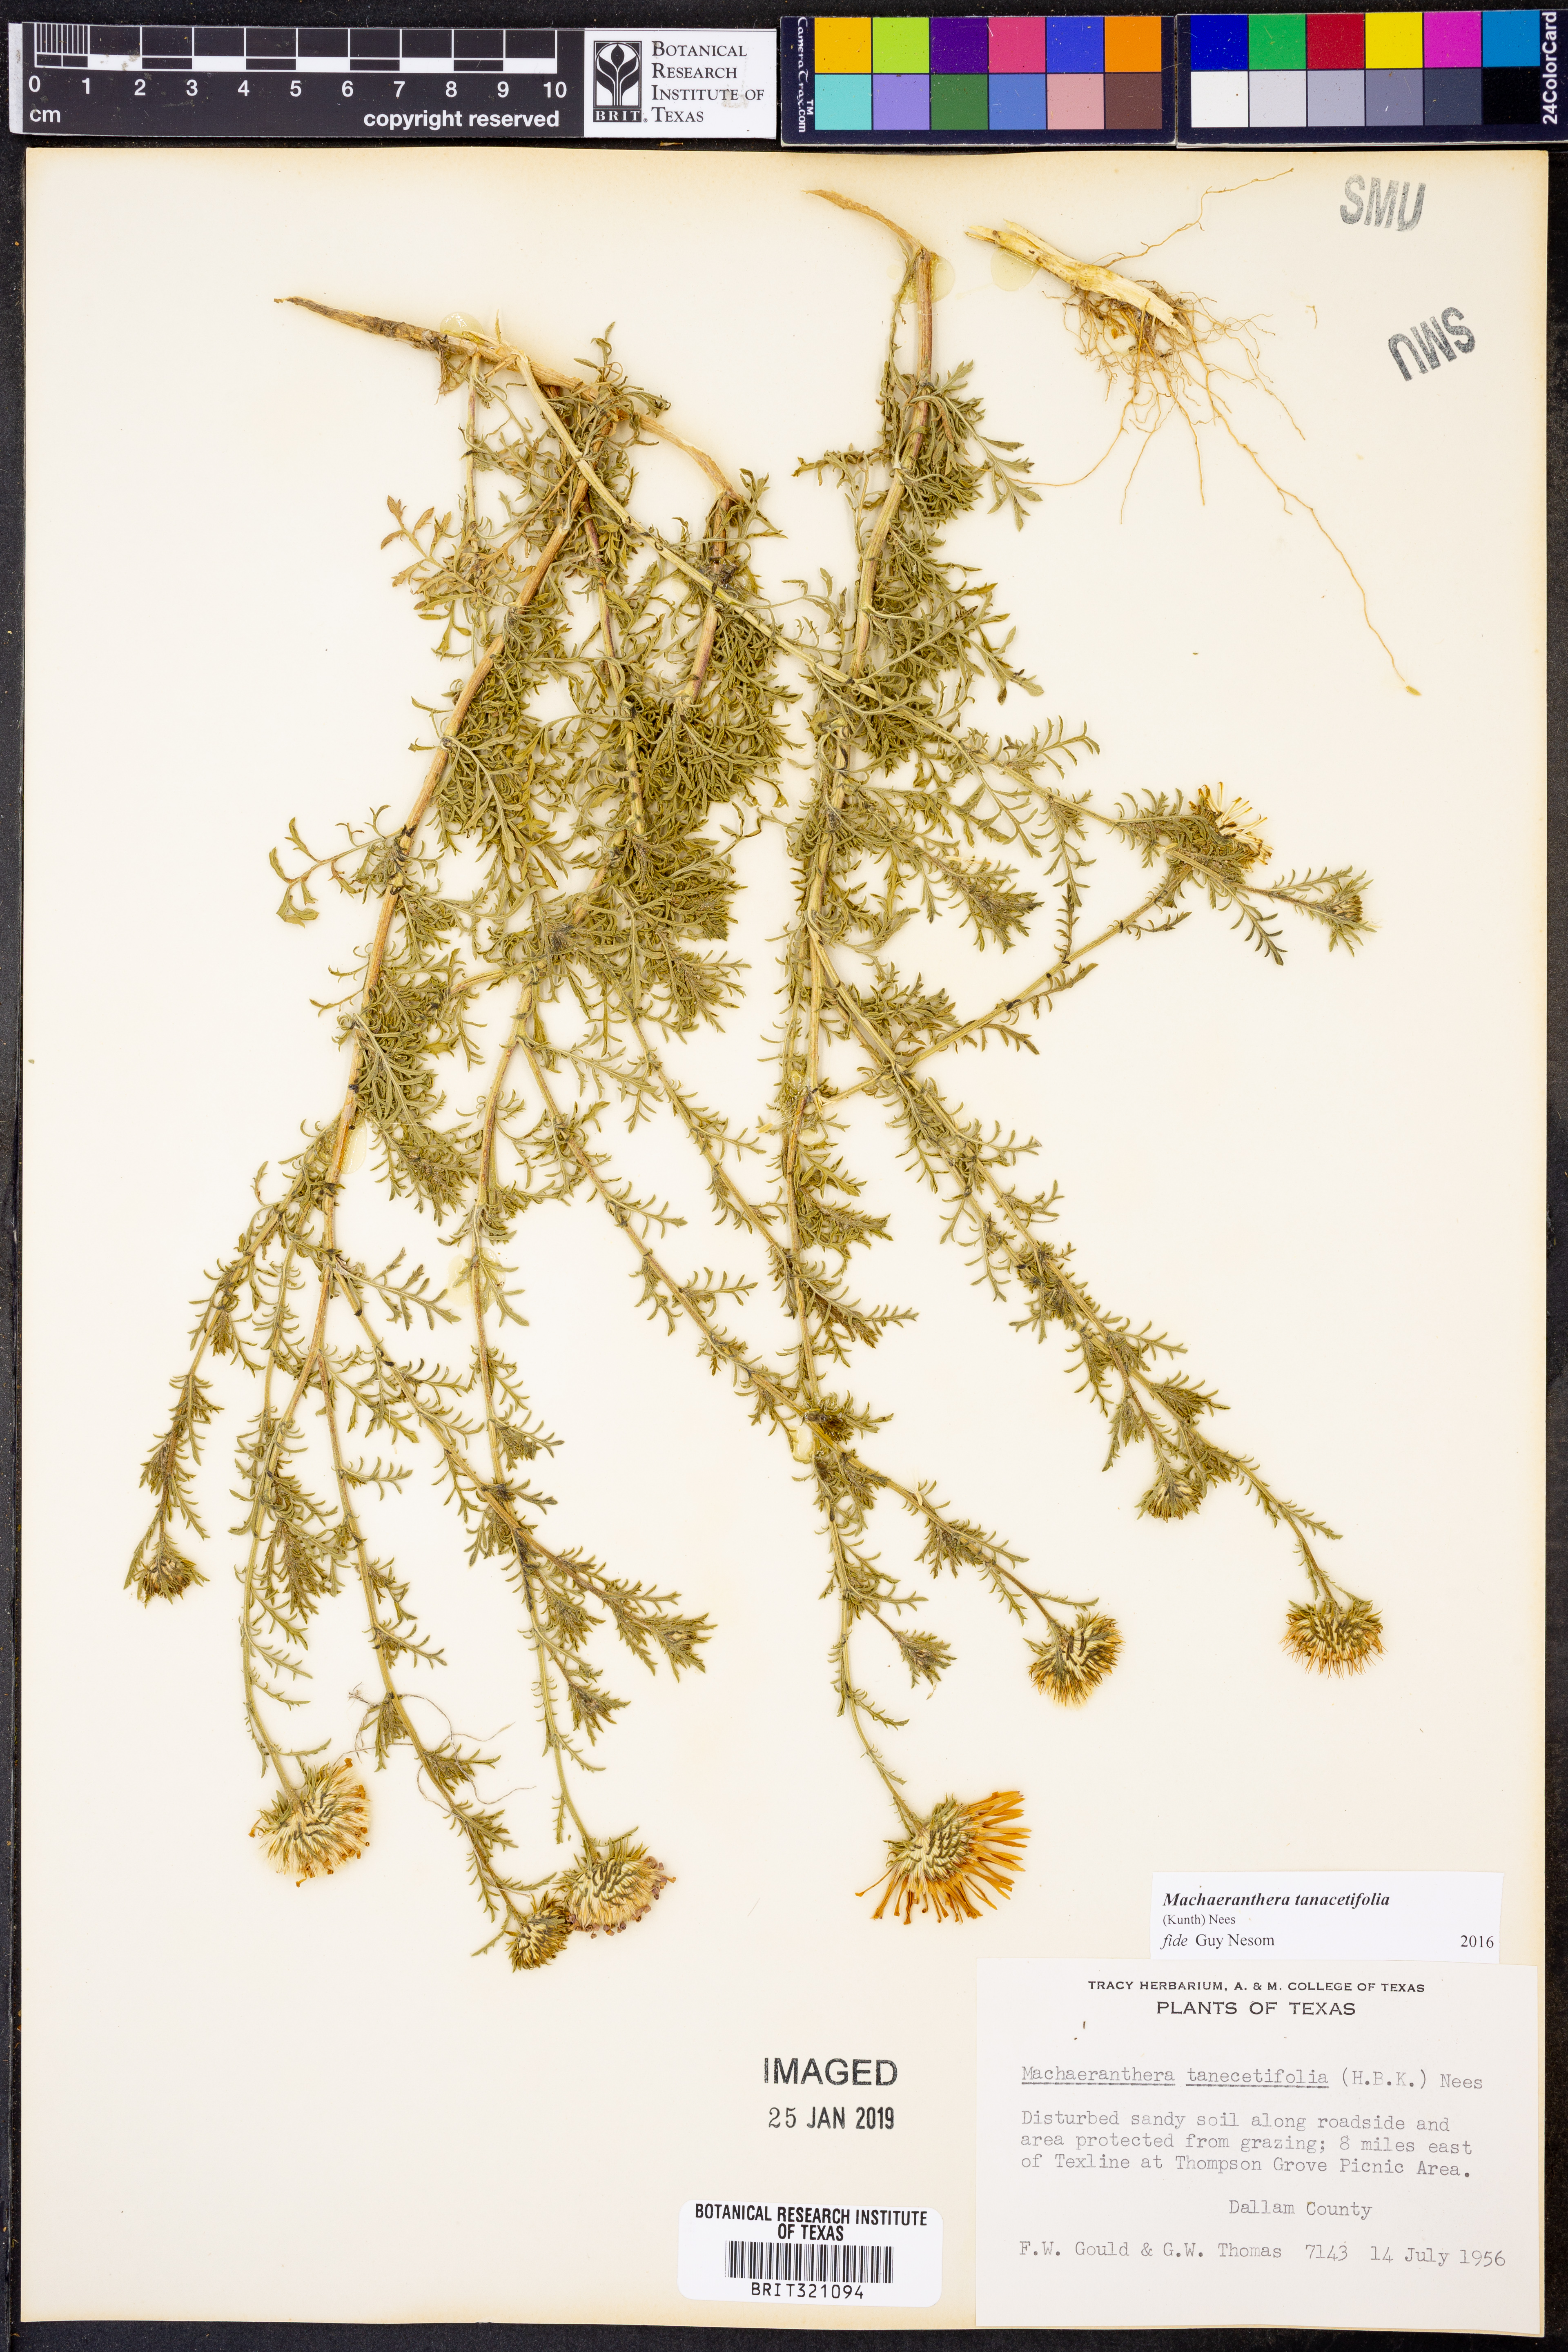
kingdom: Plantae
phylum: Tracheophyta
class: Magnoliopsida
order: Asterales
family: Asteraceae
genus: Machaeranthera
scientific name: Machaeranthera tanacetifolia
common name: Tansy-aster
